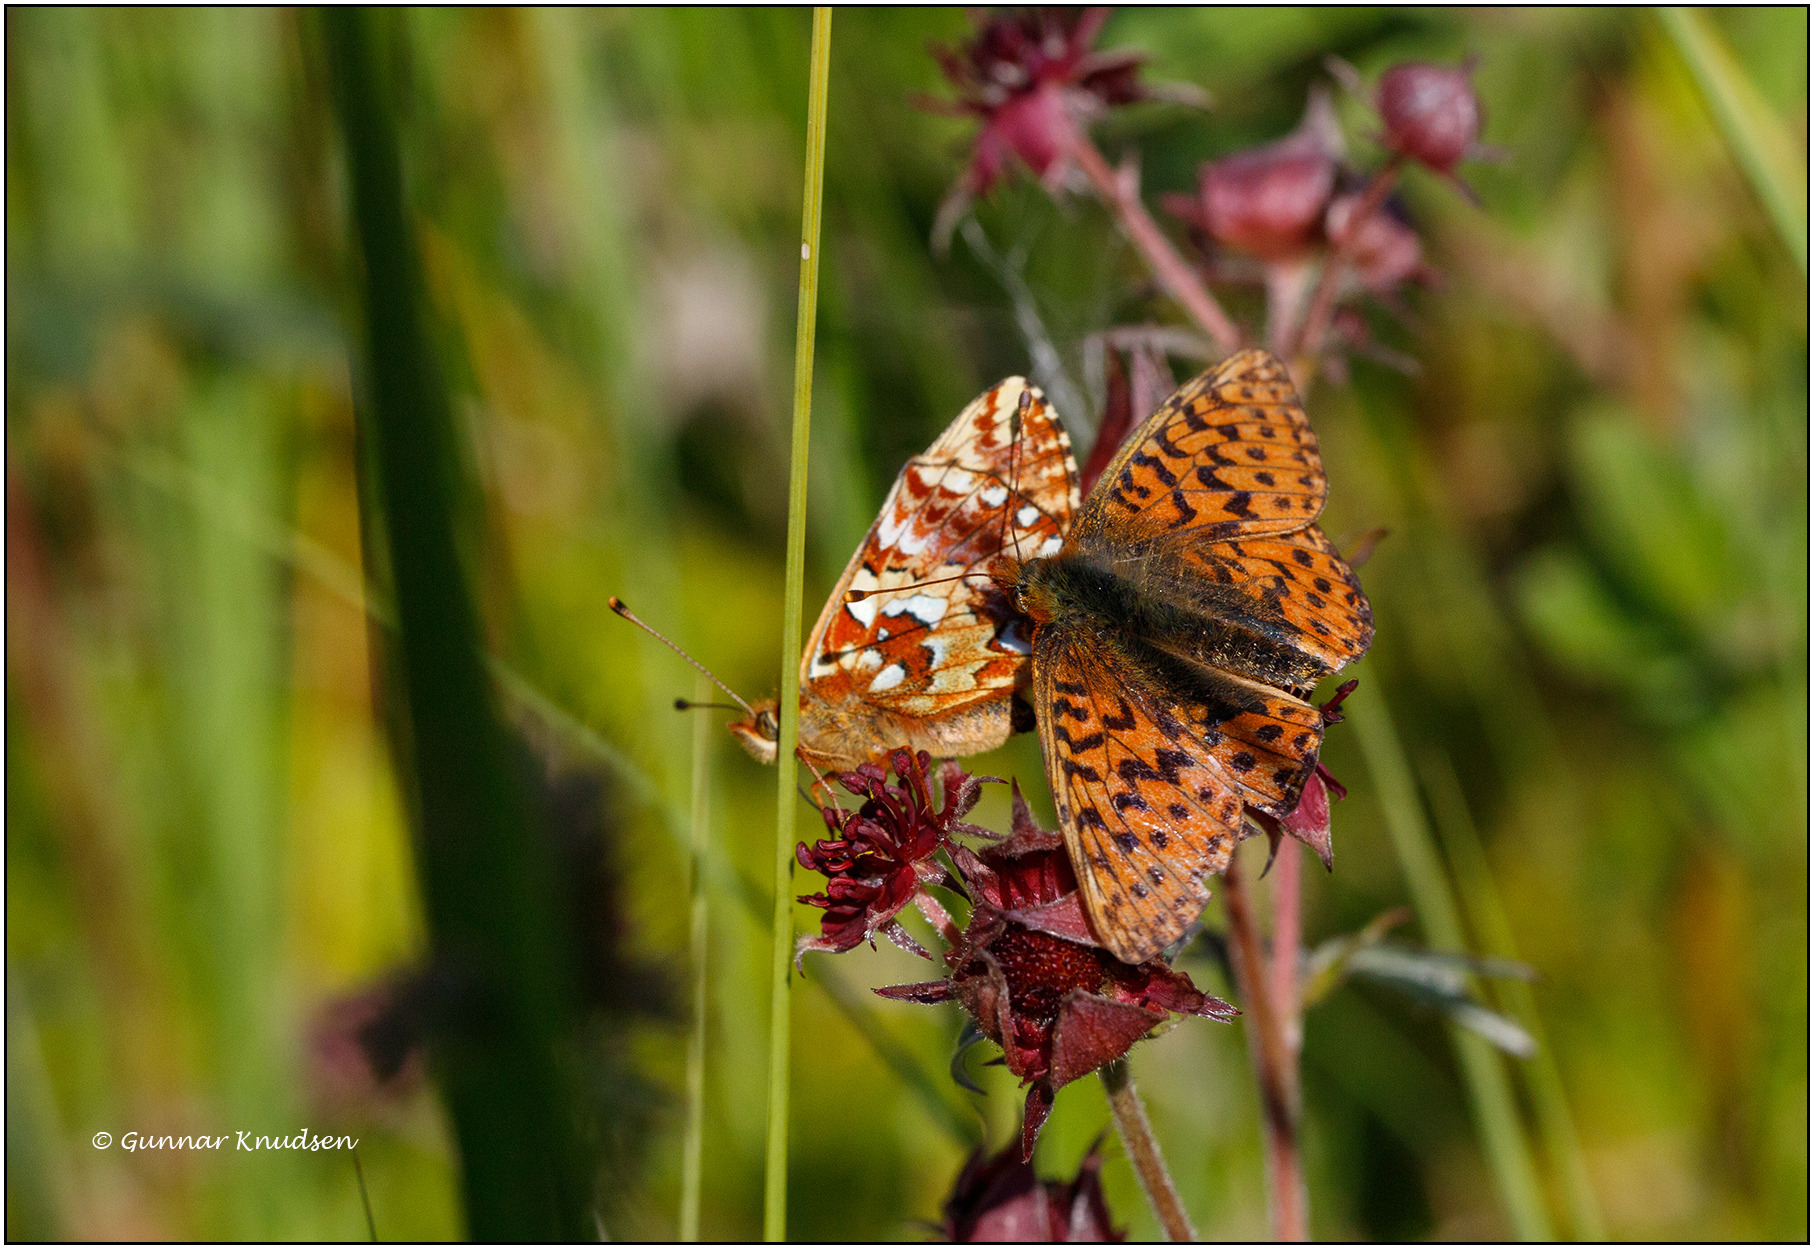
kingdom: Animalia
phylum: Arthropoda
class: Insecta
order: Lepidoptera
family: Nymphalidae
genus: Boloria
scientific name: Boloria aquilonaris
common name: Moseperlemorsommerfugl
